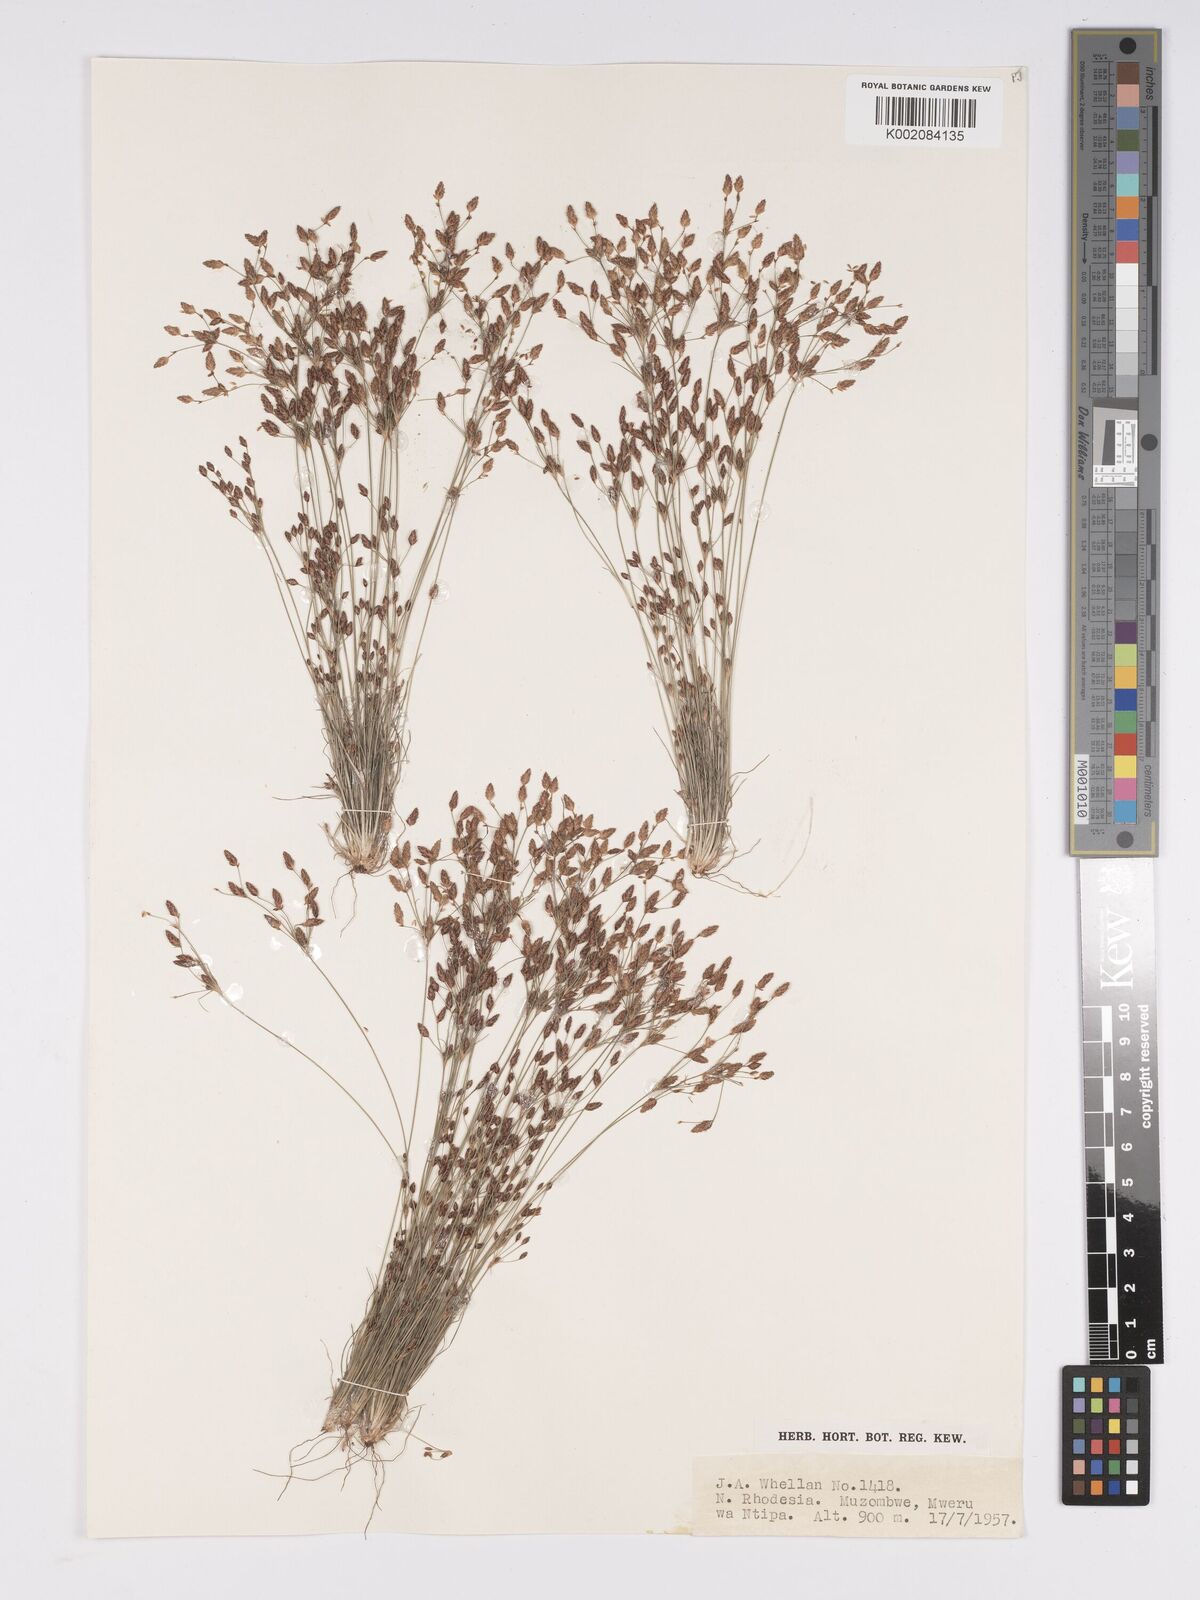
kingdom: Plantae
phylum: Tracheophyta
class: Liliopsida
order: Poales
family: Cyperaceae
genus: Bulbostylis
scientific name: Bulbostylis
